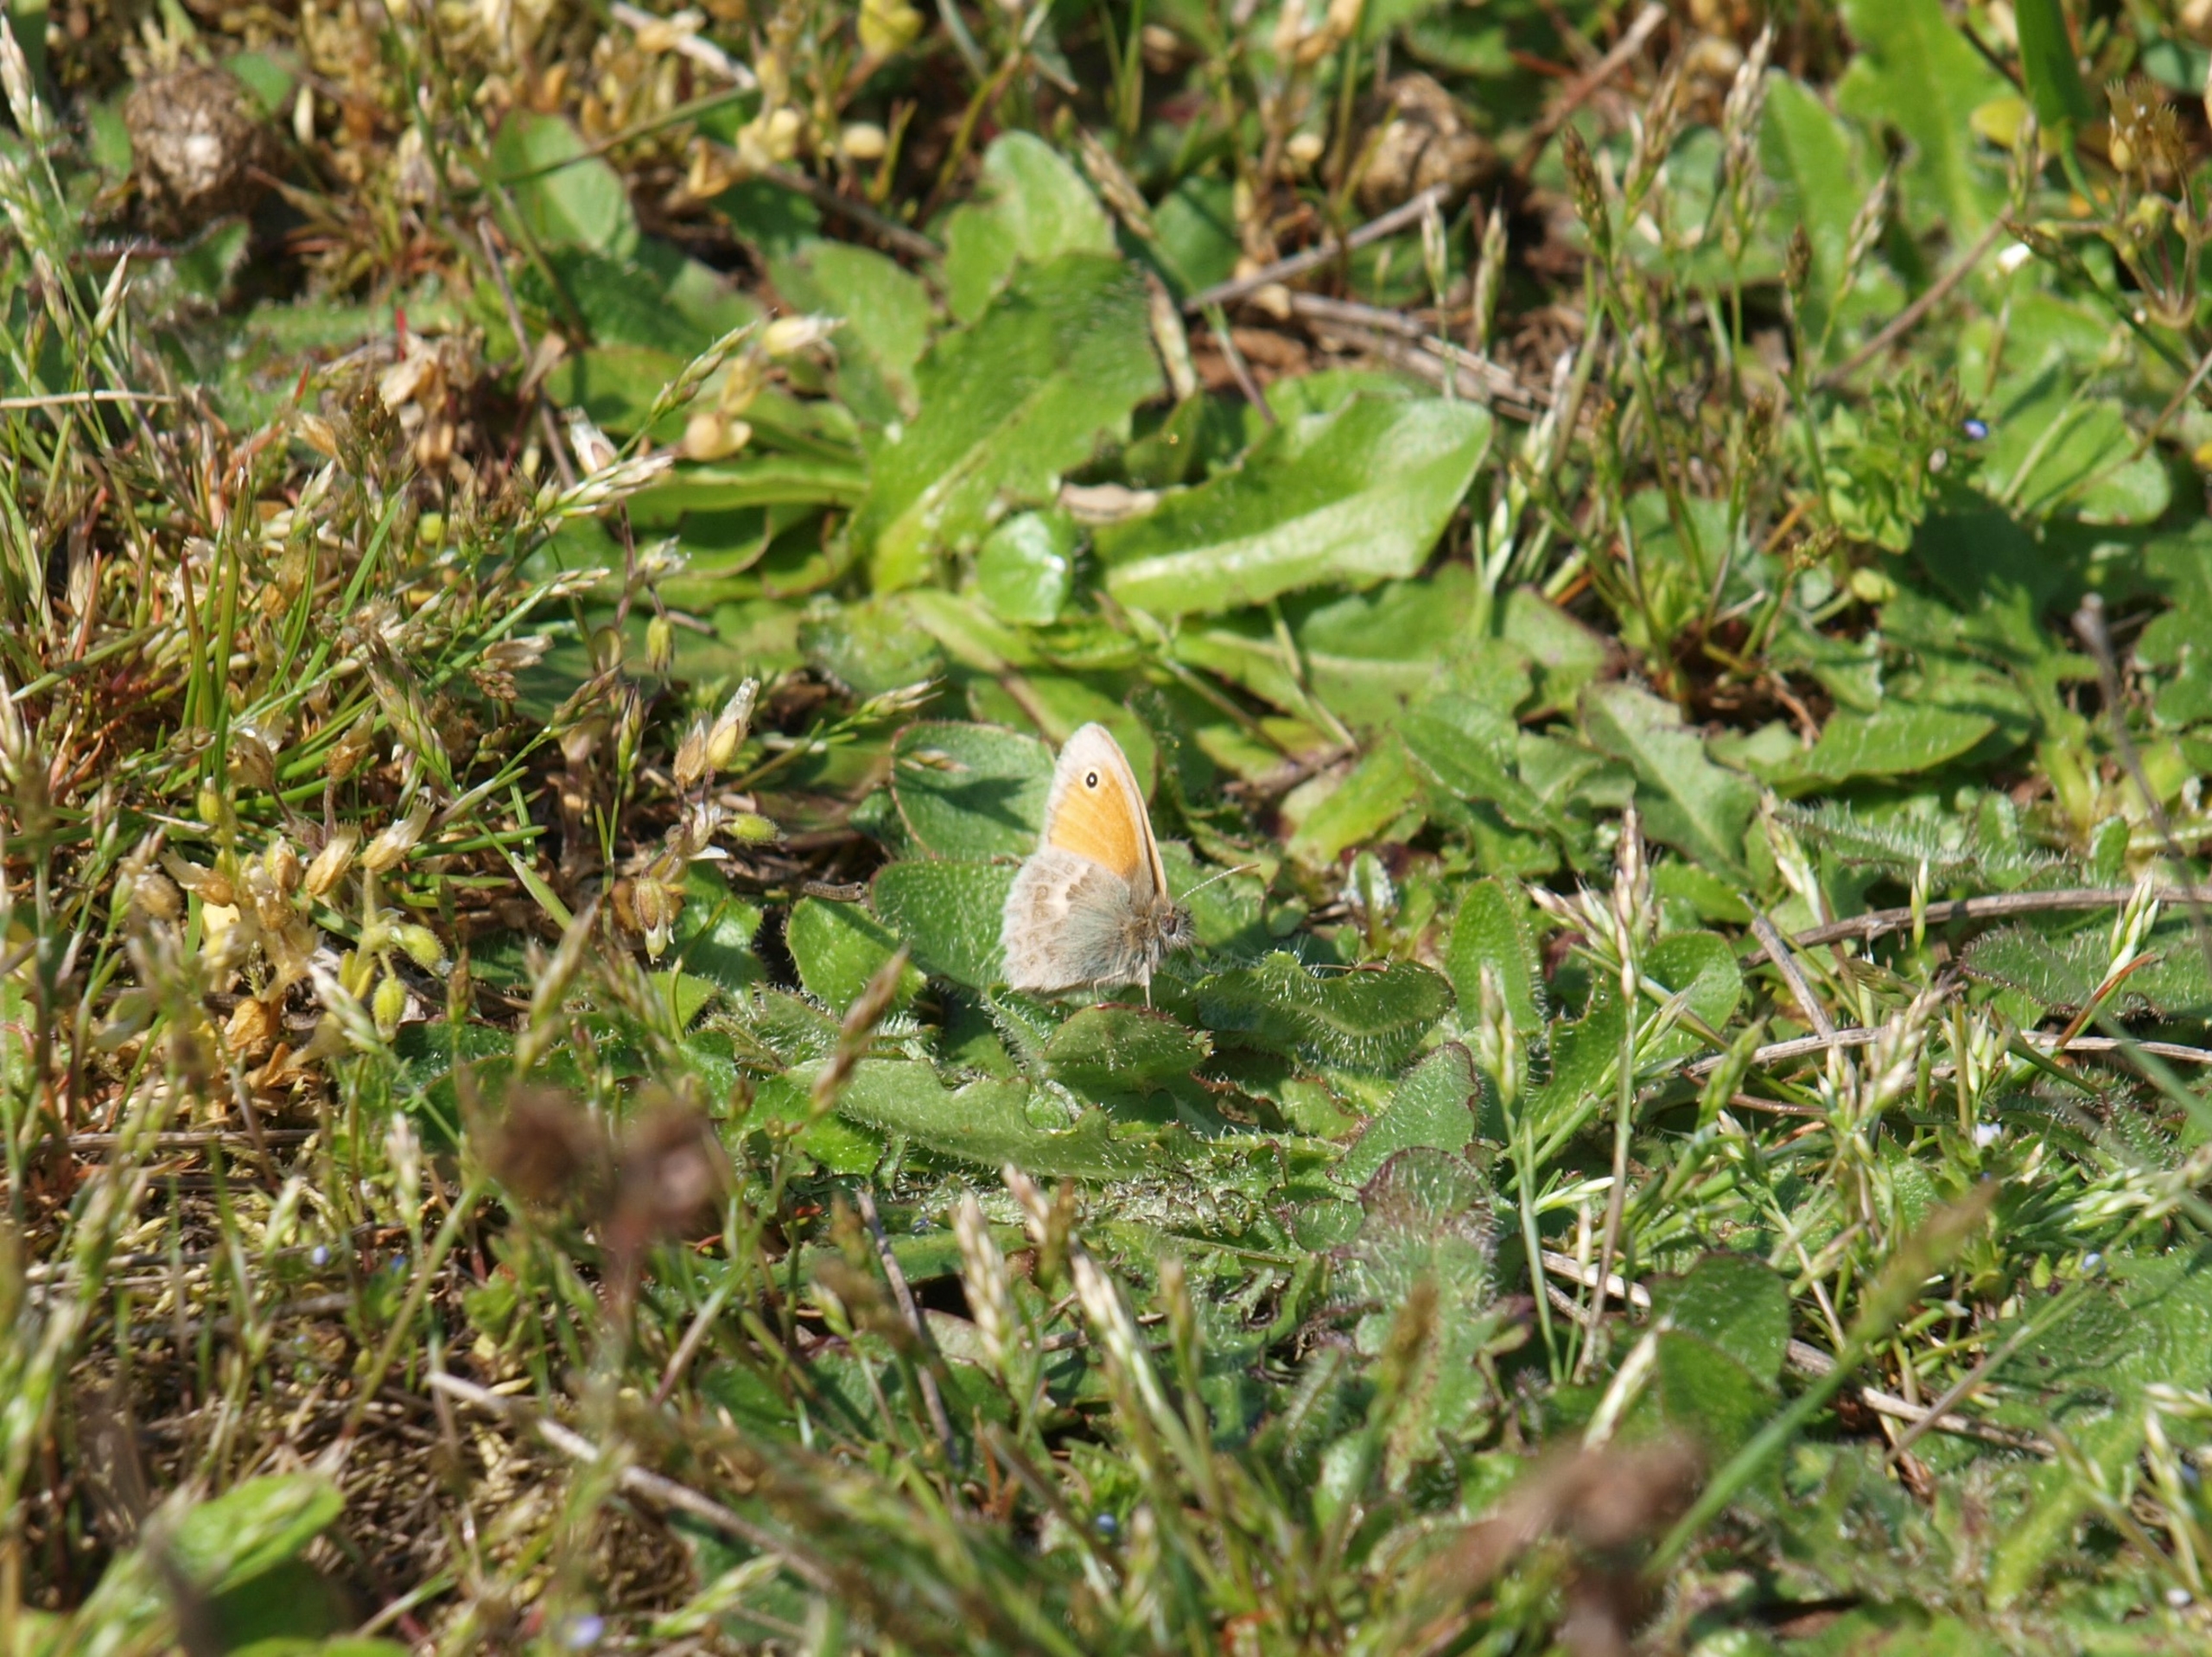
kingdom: Animalia
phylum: Arthropoda
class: Insecta
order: Lepidoptera
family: Nymphalidae
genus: Coenonympha
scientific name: Coenonympha pamphilus
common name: Okkergul randøje
